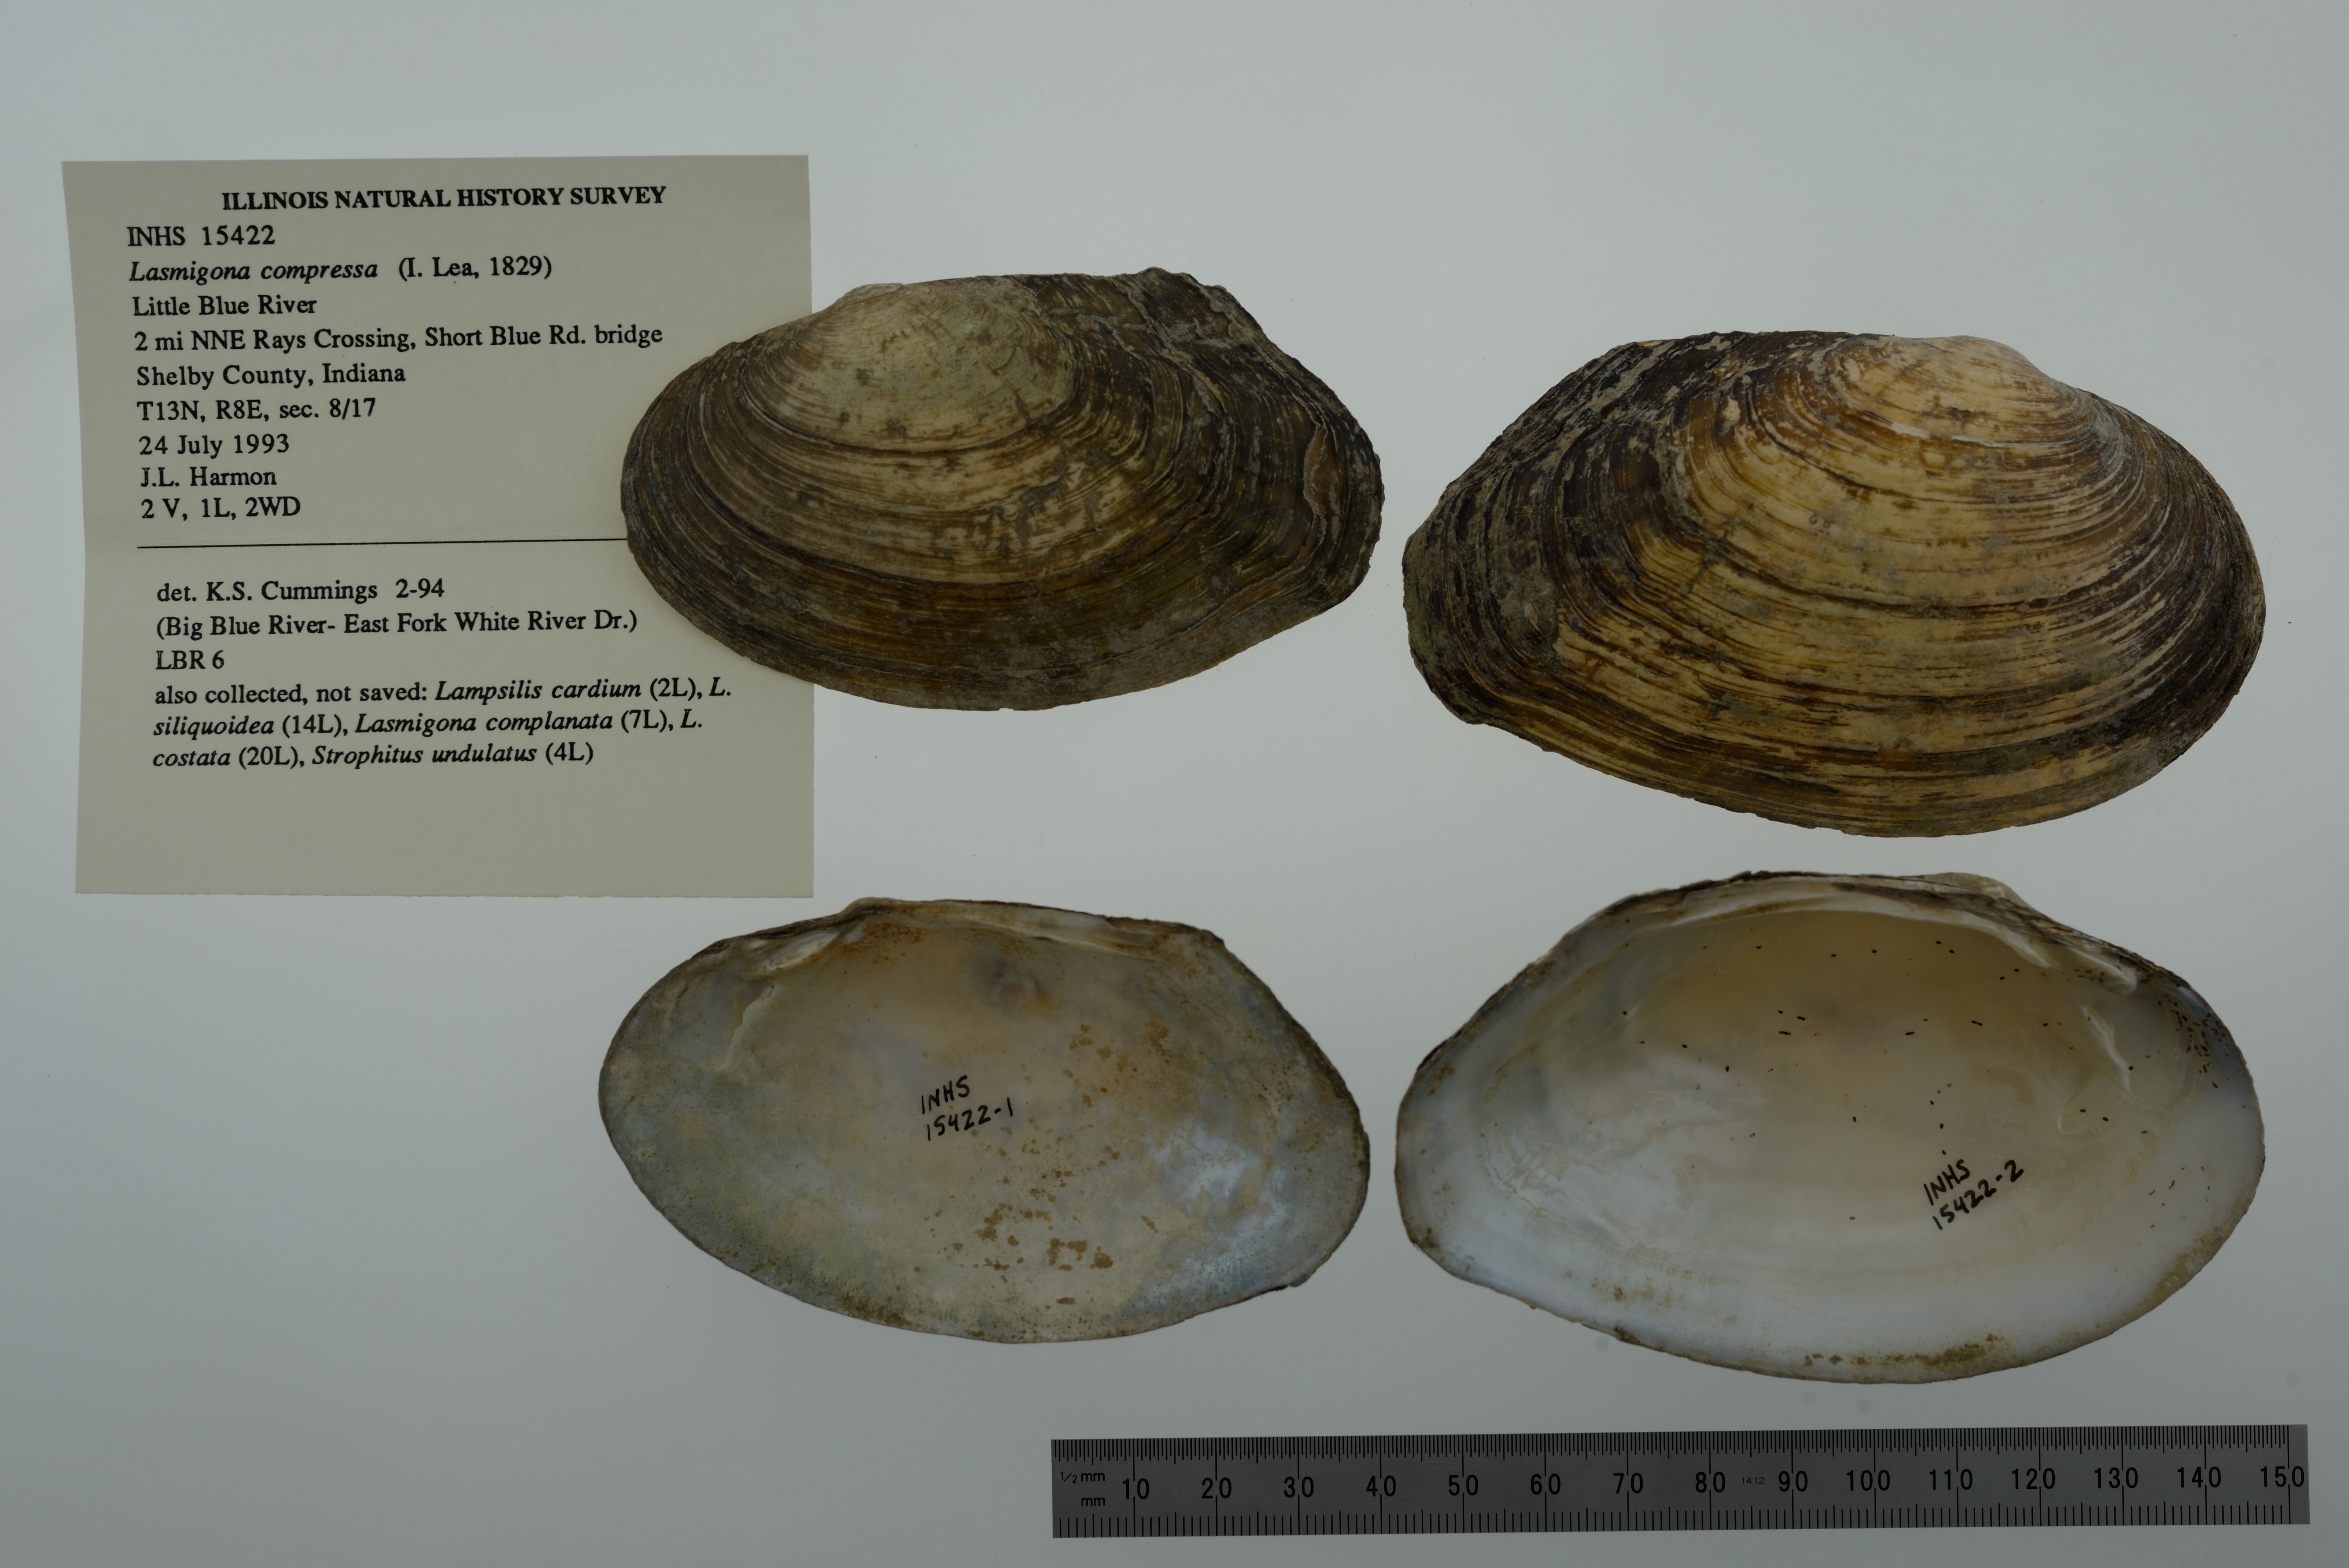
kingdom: Animalia
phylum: Mollusca
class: Bivalvia
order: Unionida
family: Unionidae
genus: Lasmigona
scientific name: Lasmigona compressa
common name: Creek heelsplitter
